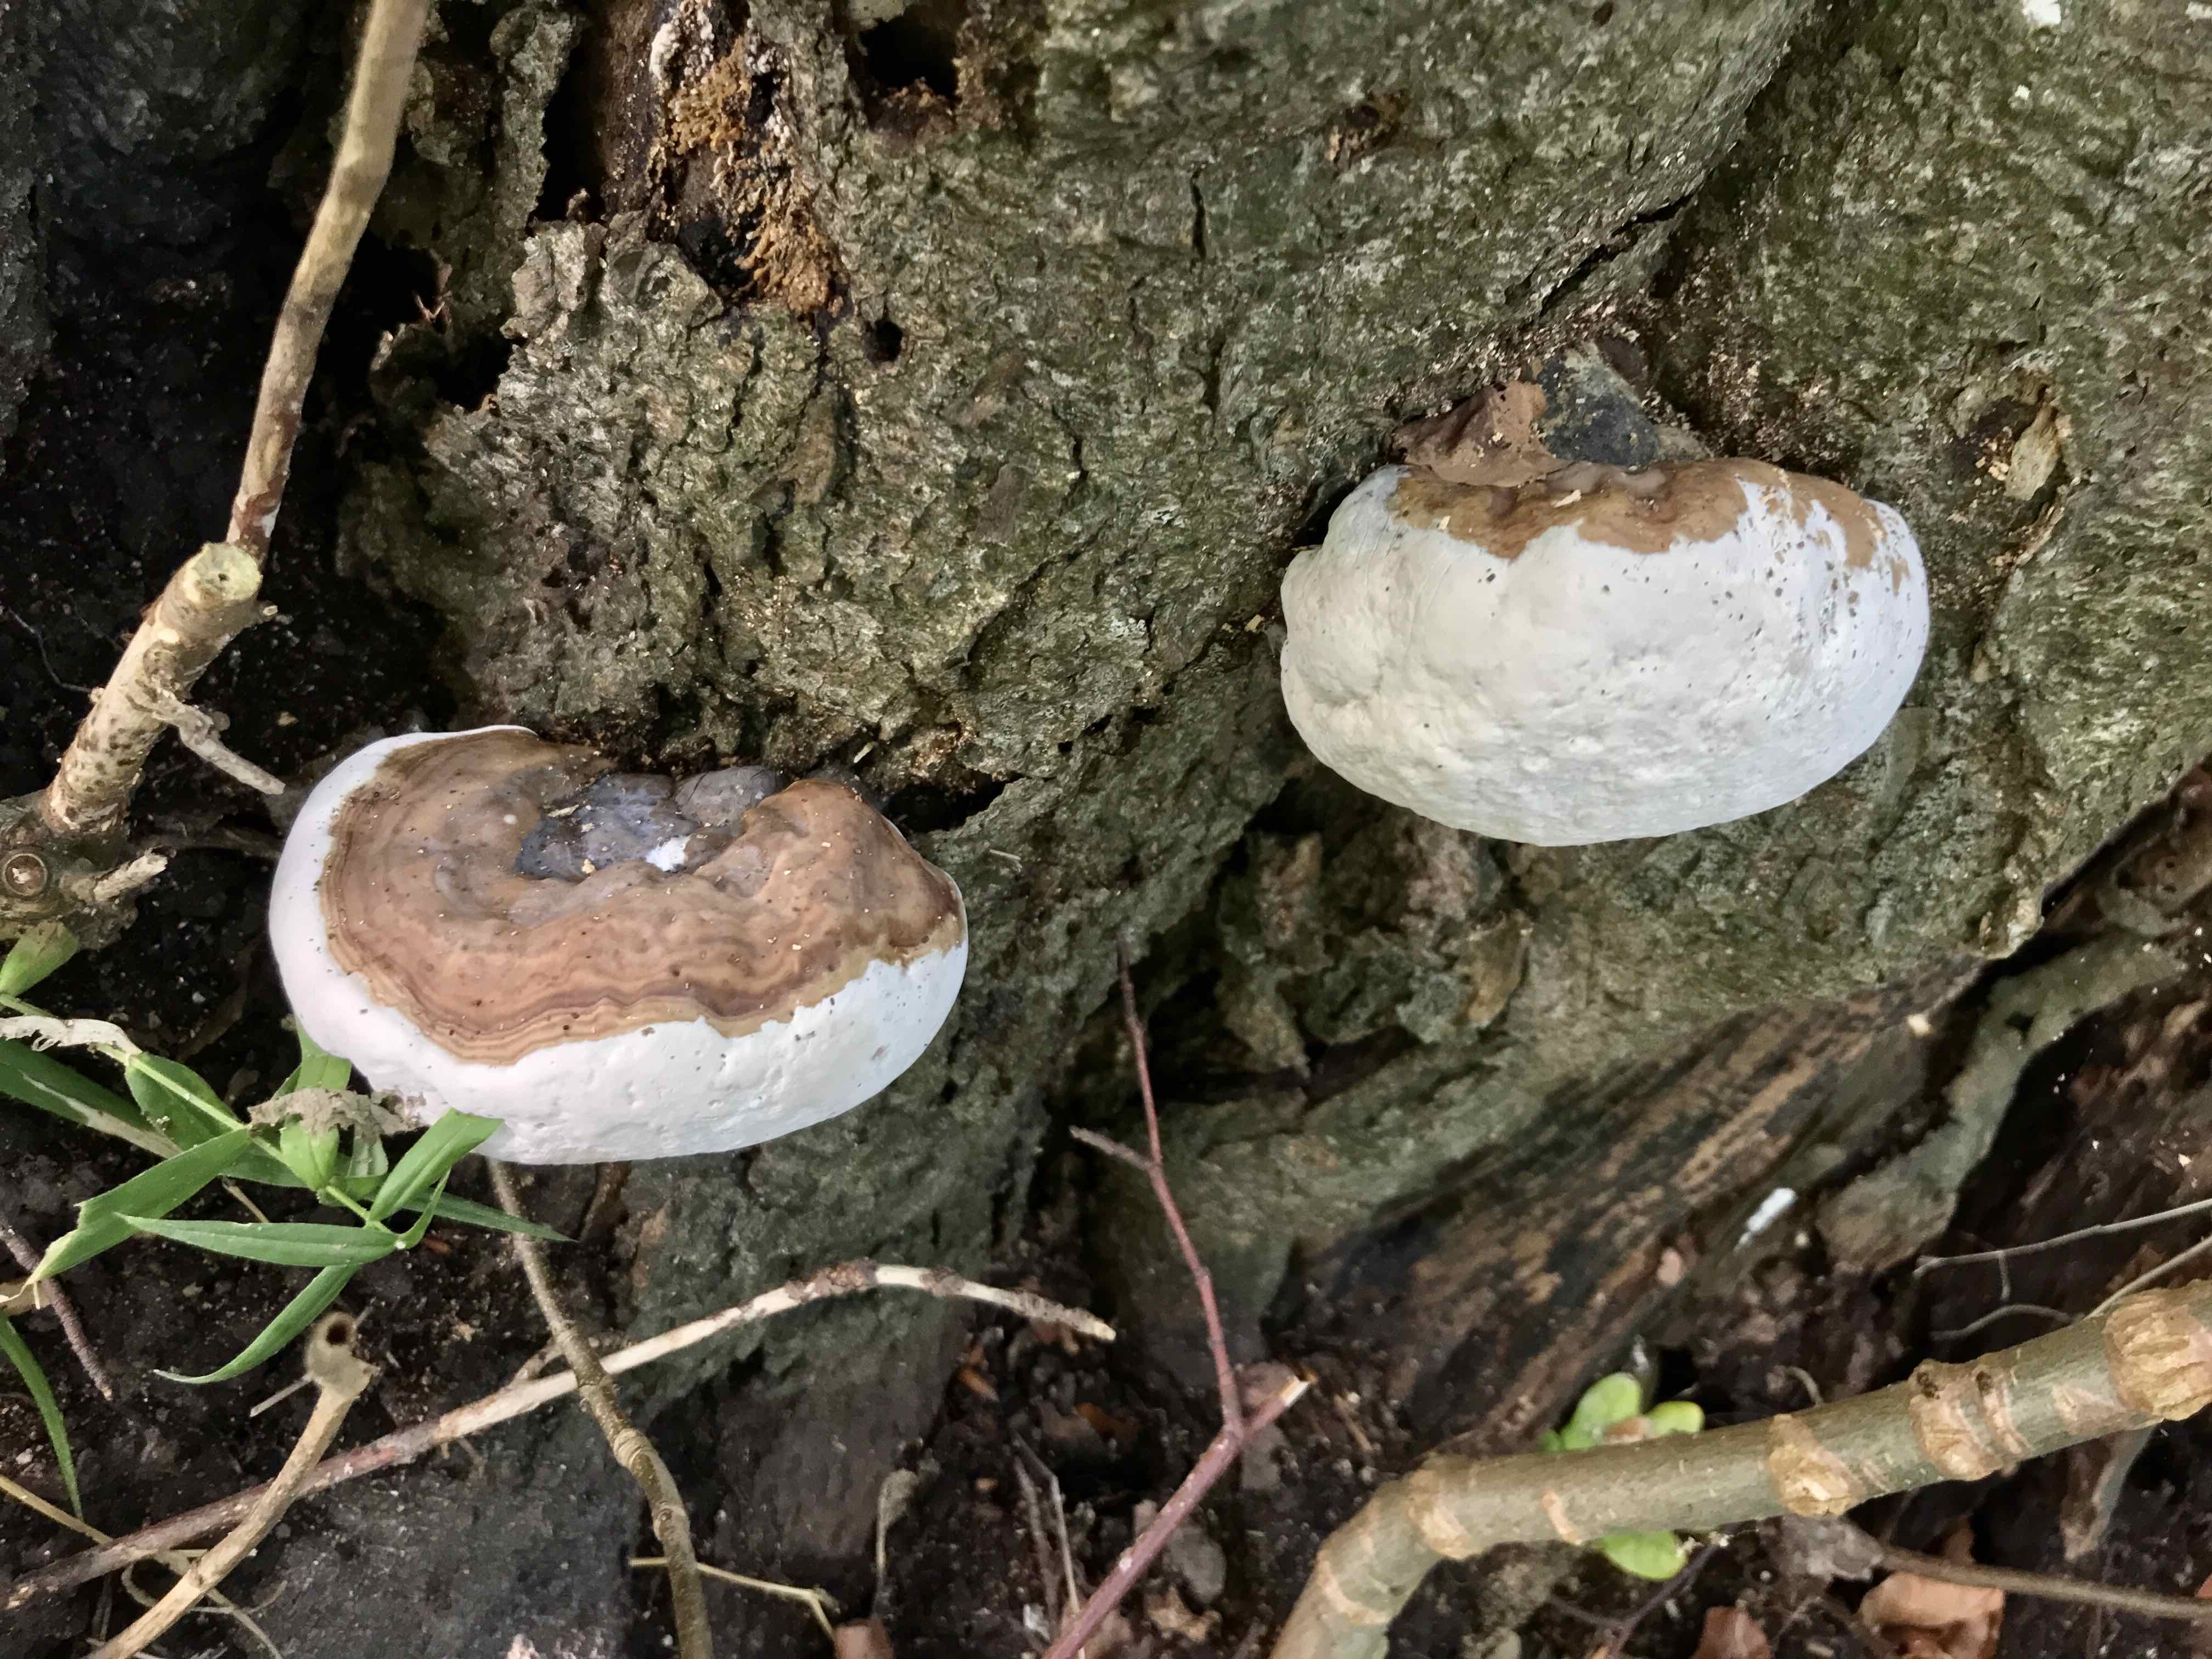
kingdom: Fungi
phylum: Basidiomycota
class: Agaricomycetes
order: Polyporales
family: Polyporaceae
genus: Ganoderma
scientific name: Ganoderma resinaceum
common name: gyldenbrun lakporesvamp
